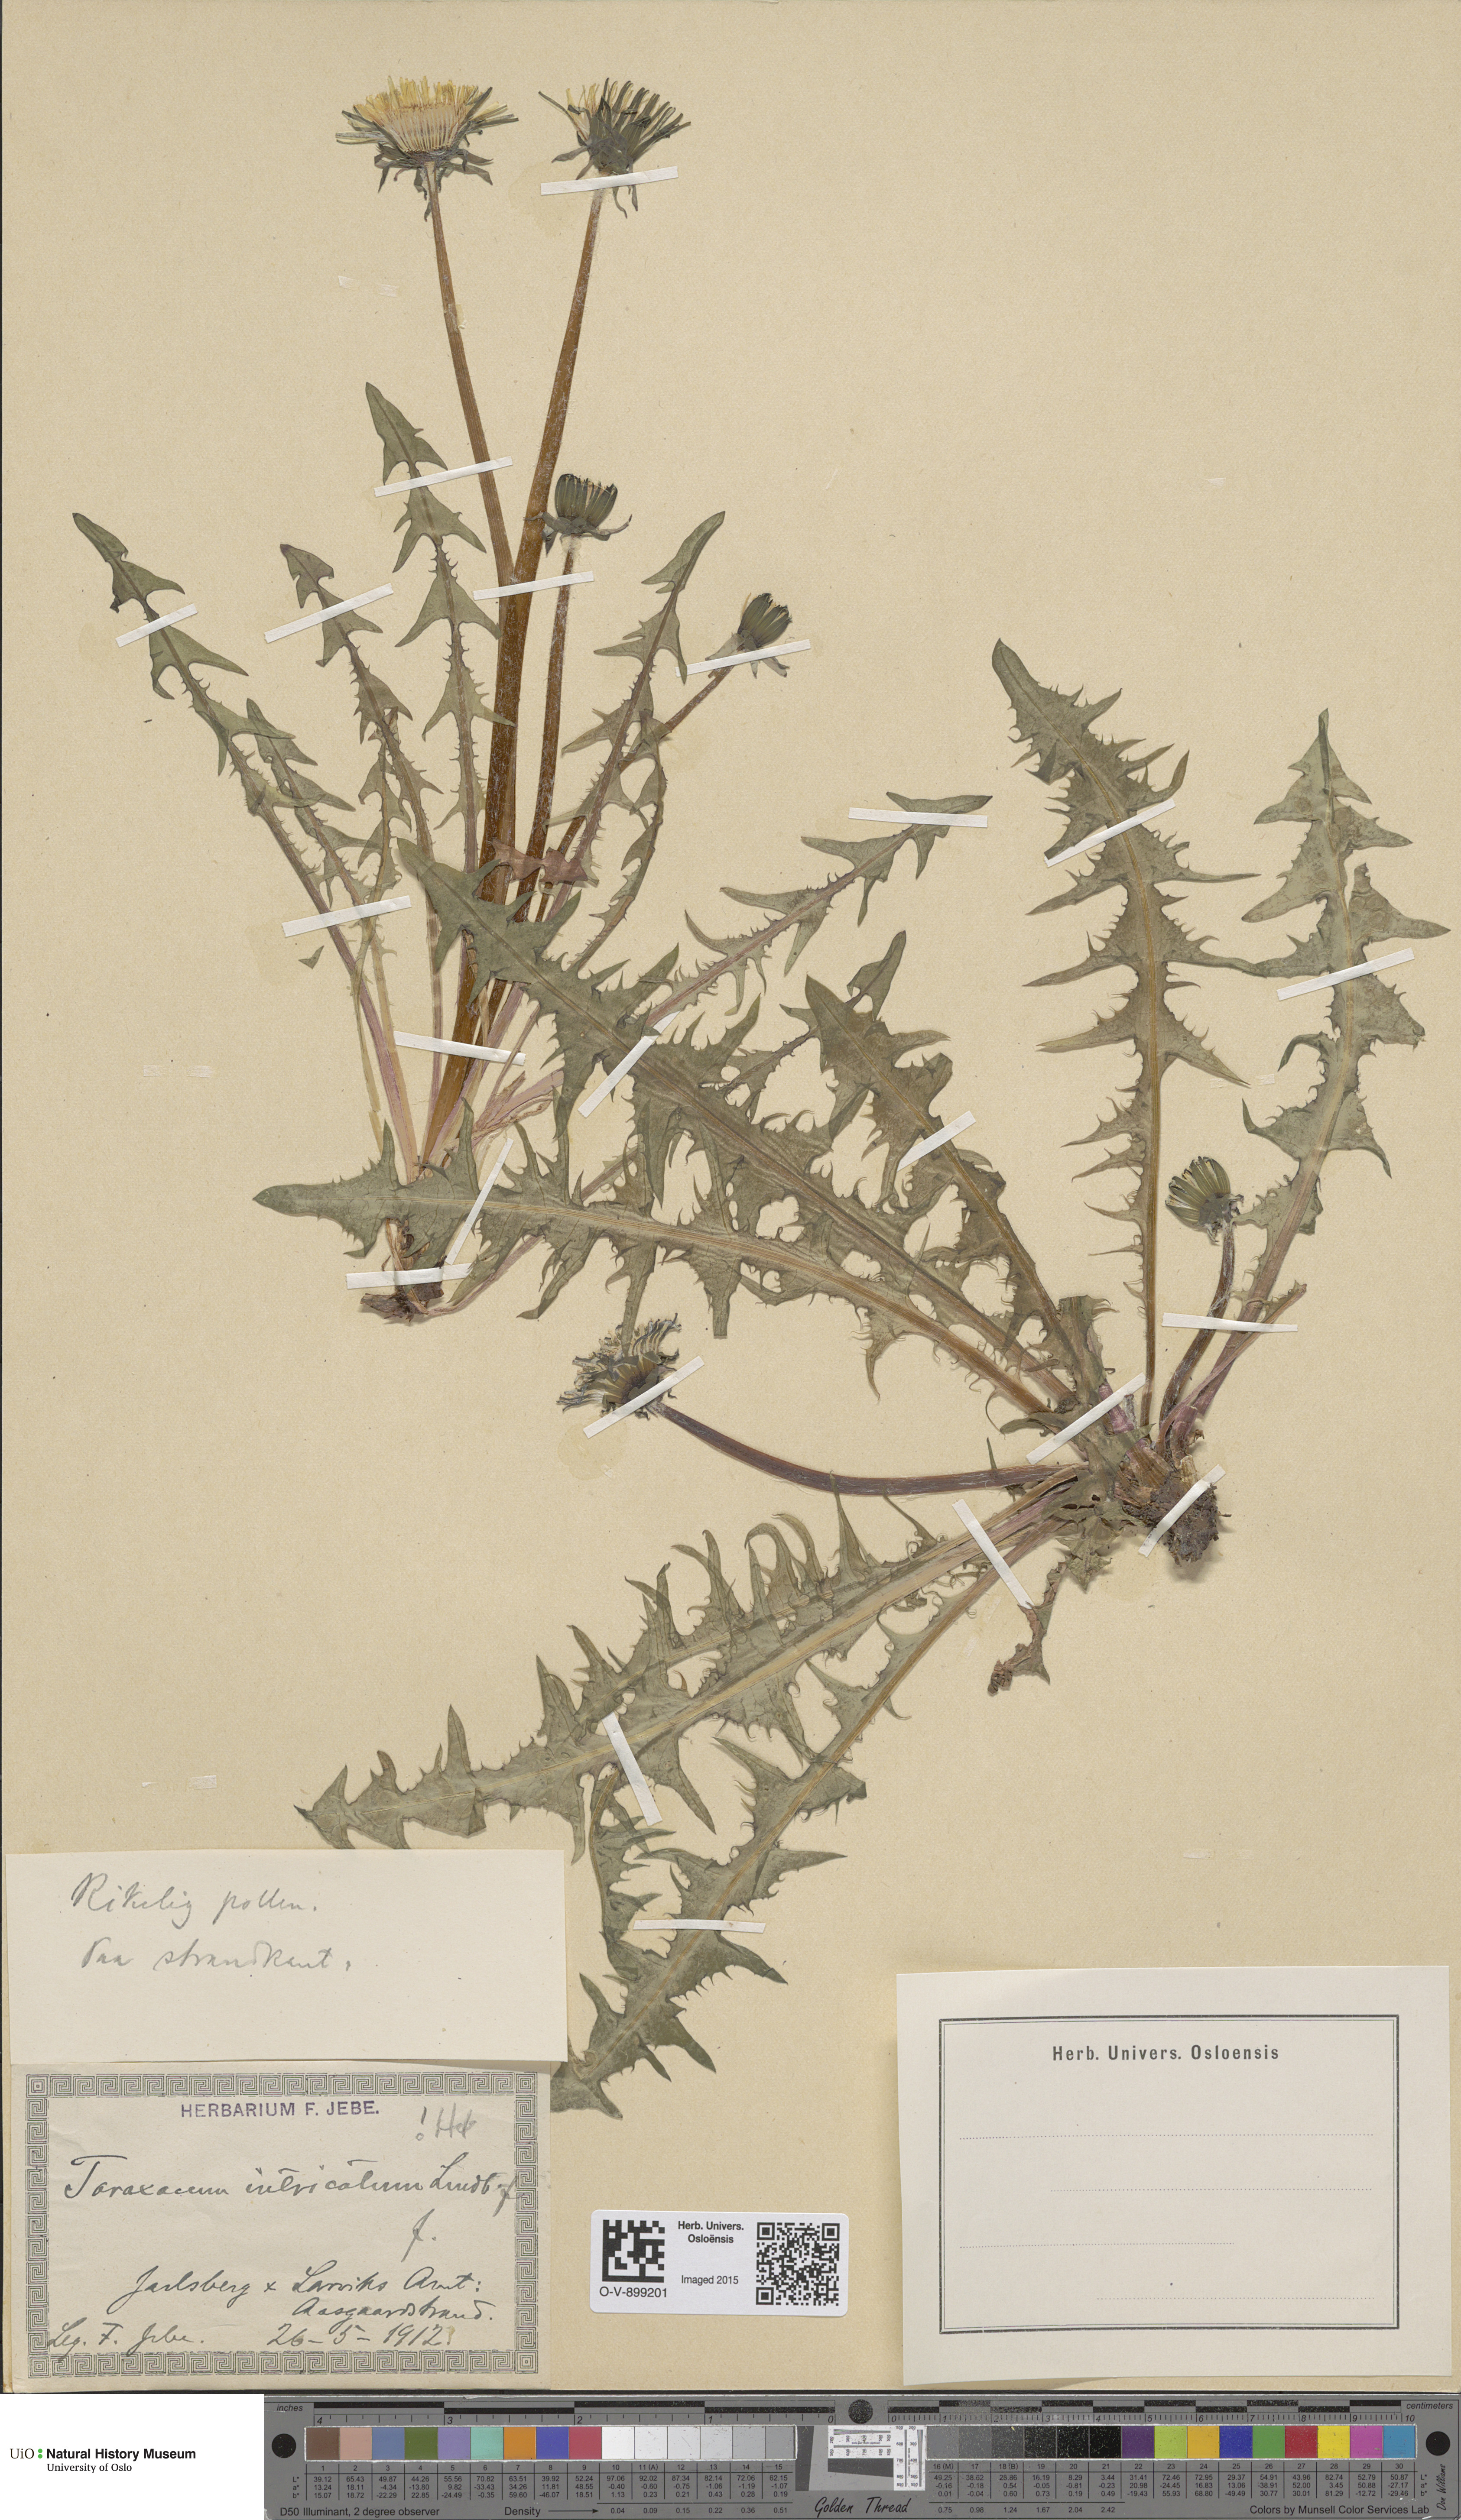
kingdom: Plantae
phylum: Tracheophyta
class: Magnoliopsida
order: Asterales
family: Asteraceae
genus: Taraxacum
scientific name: Taraxacum recurvum
